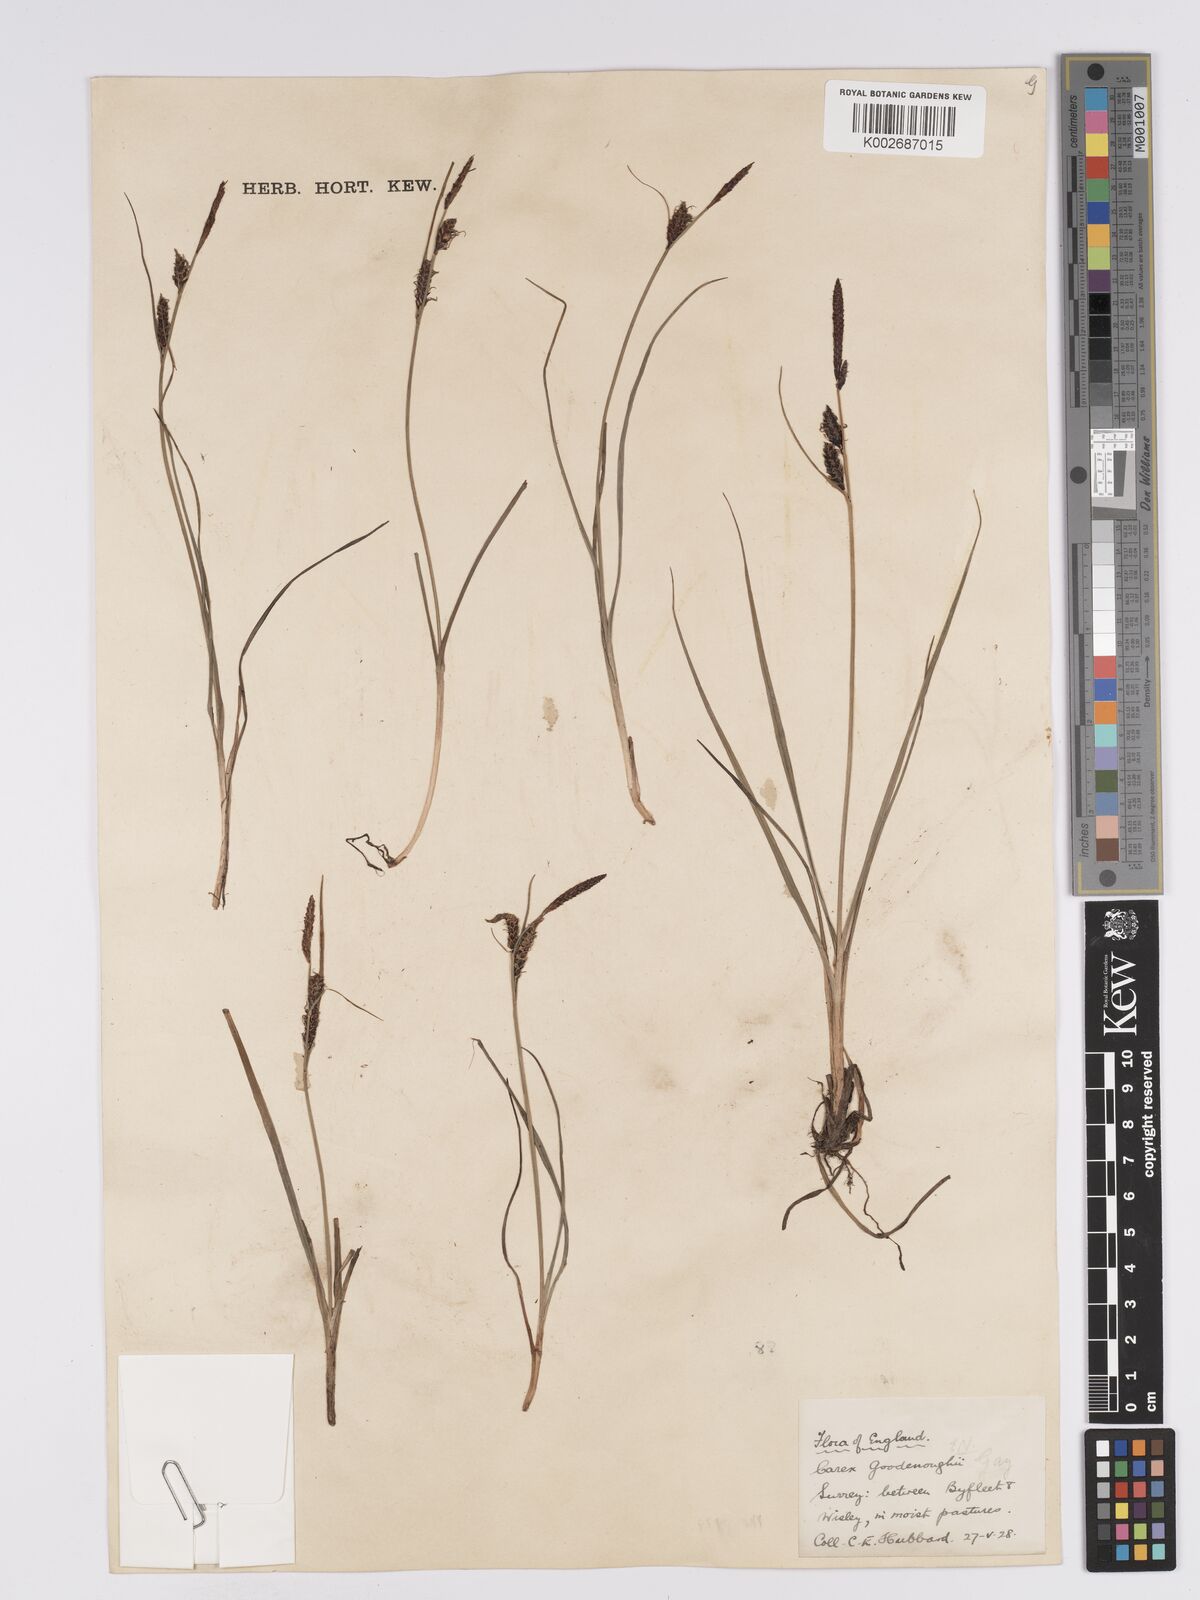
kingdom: Plantae
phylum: Tracheophyta
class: Liliopsida
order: Poales
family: Cyperaceae
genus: Carex
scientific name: Carex nigra
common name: Common sedge
